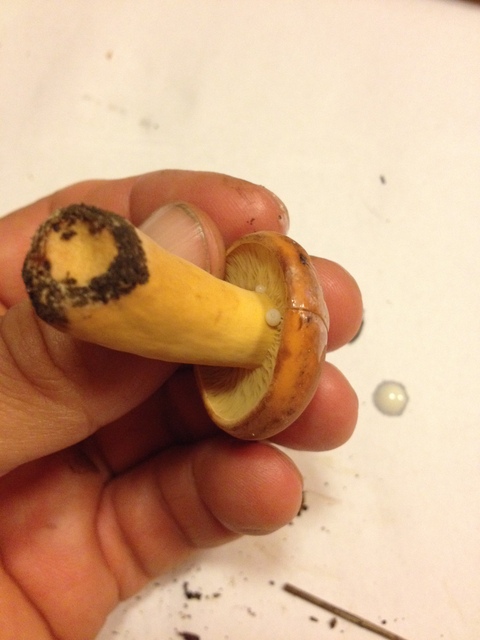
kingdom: Fungi
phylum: Basidiomycota
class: Agaricomycetes
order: Russulales
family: Russulaceae
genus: Lactifluus
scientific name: Lactifluus volemus
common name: spiselig mælkehat
